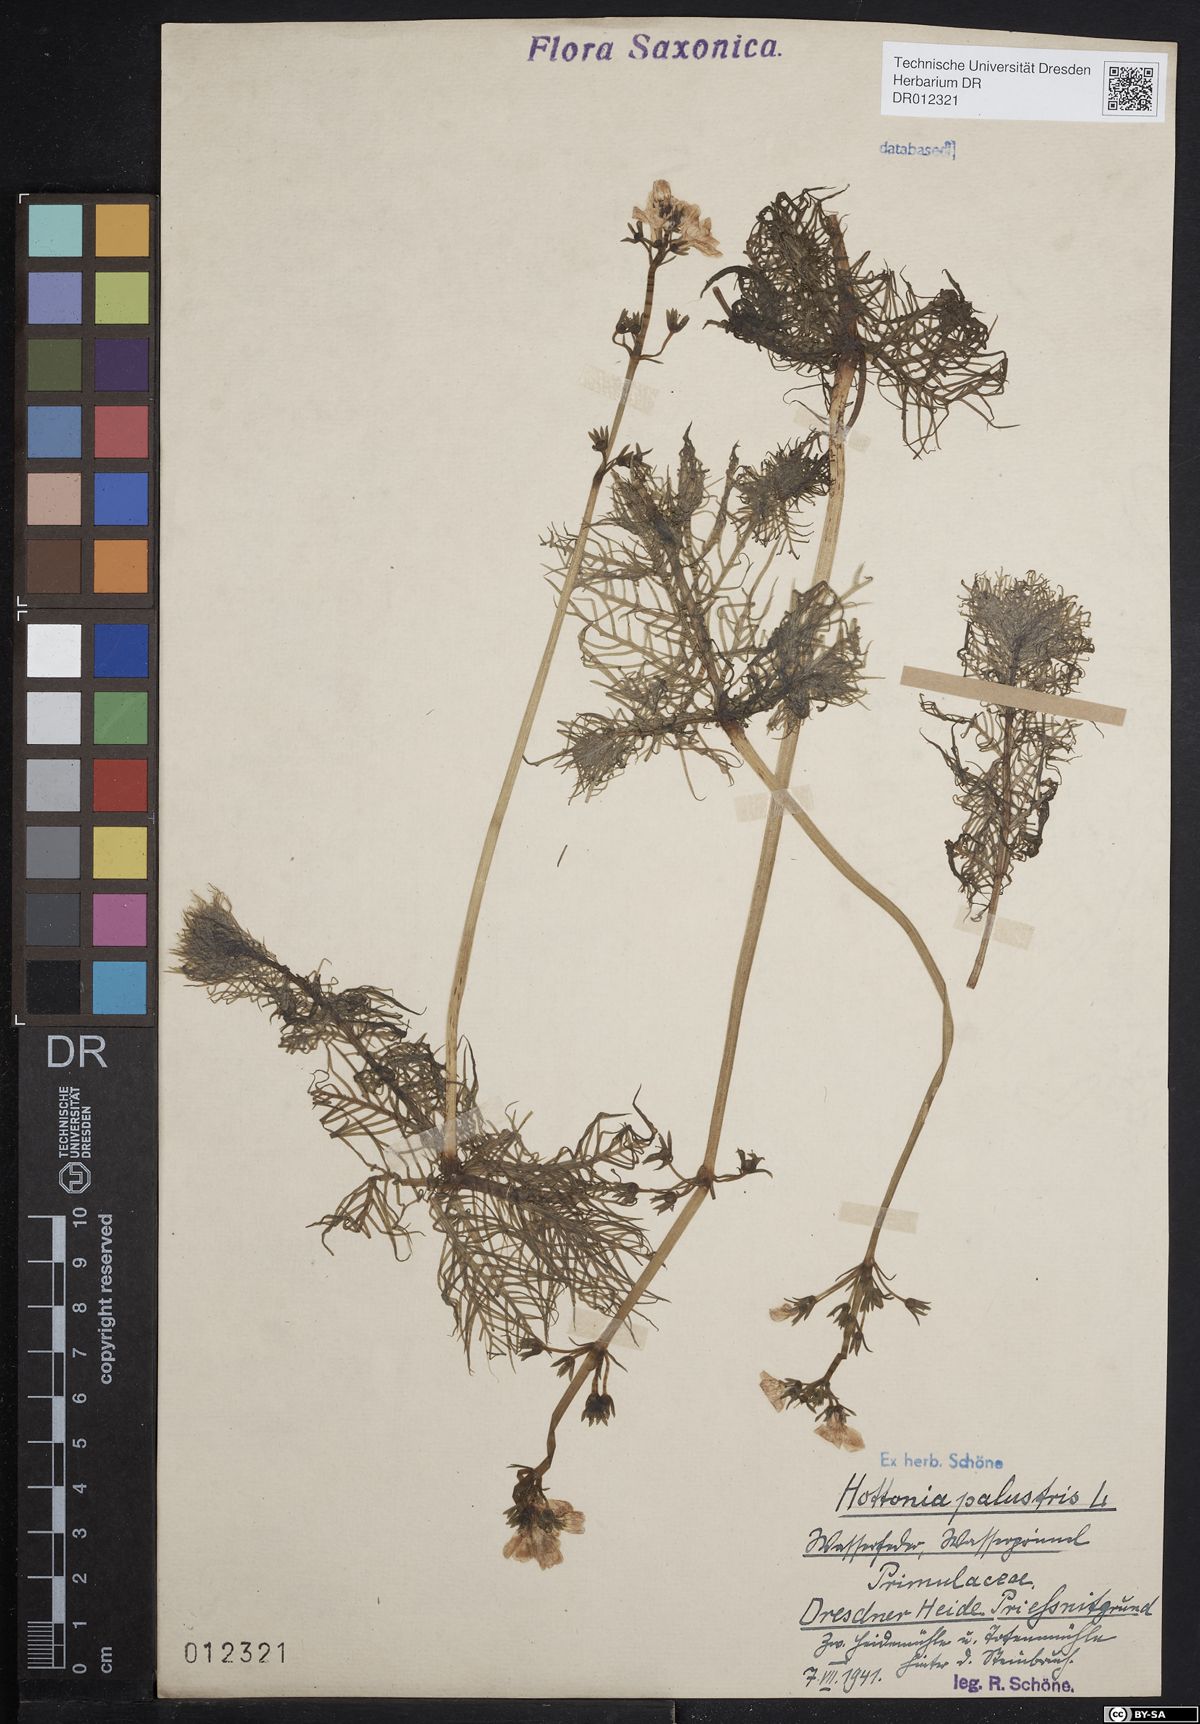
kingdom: Plantae
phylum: Tracheophyta
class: Magnoliopsida
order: Ericales
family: Primulaceae
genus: Hottonia
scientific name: Hottonia palustris
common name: Water-violet
